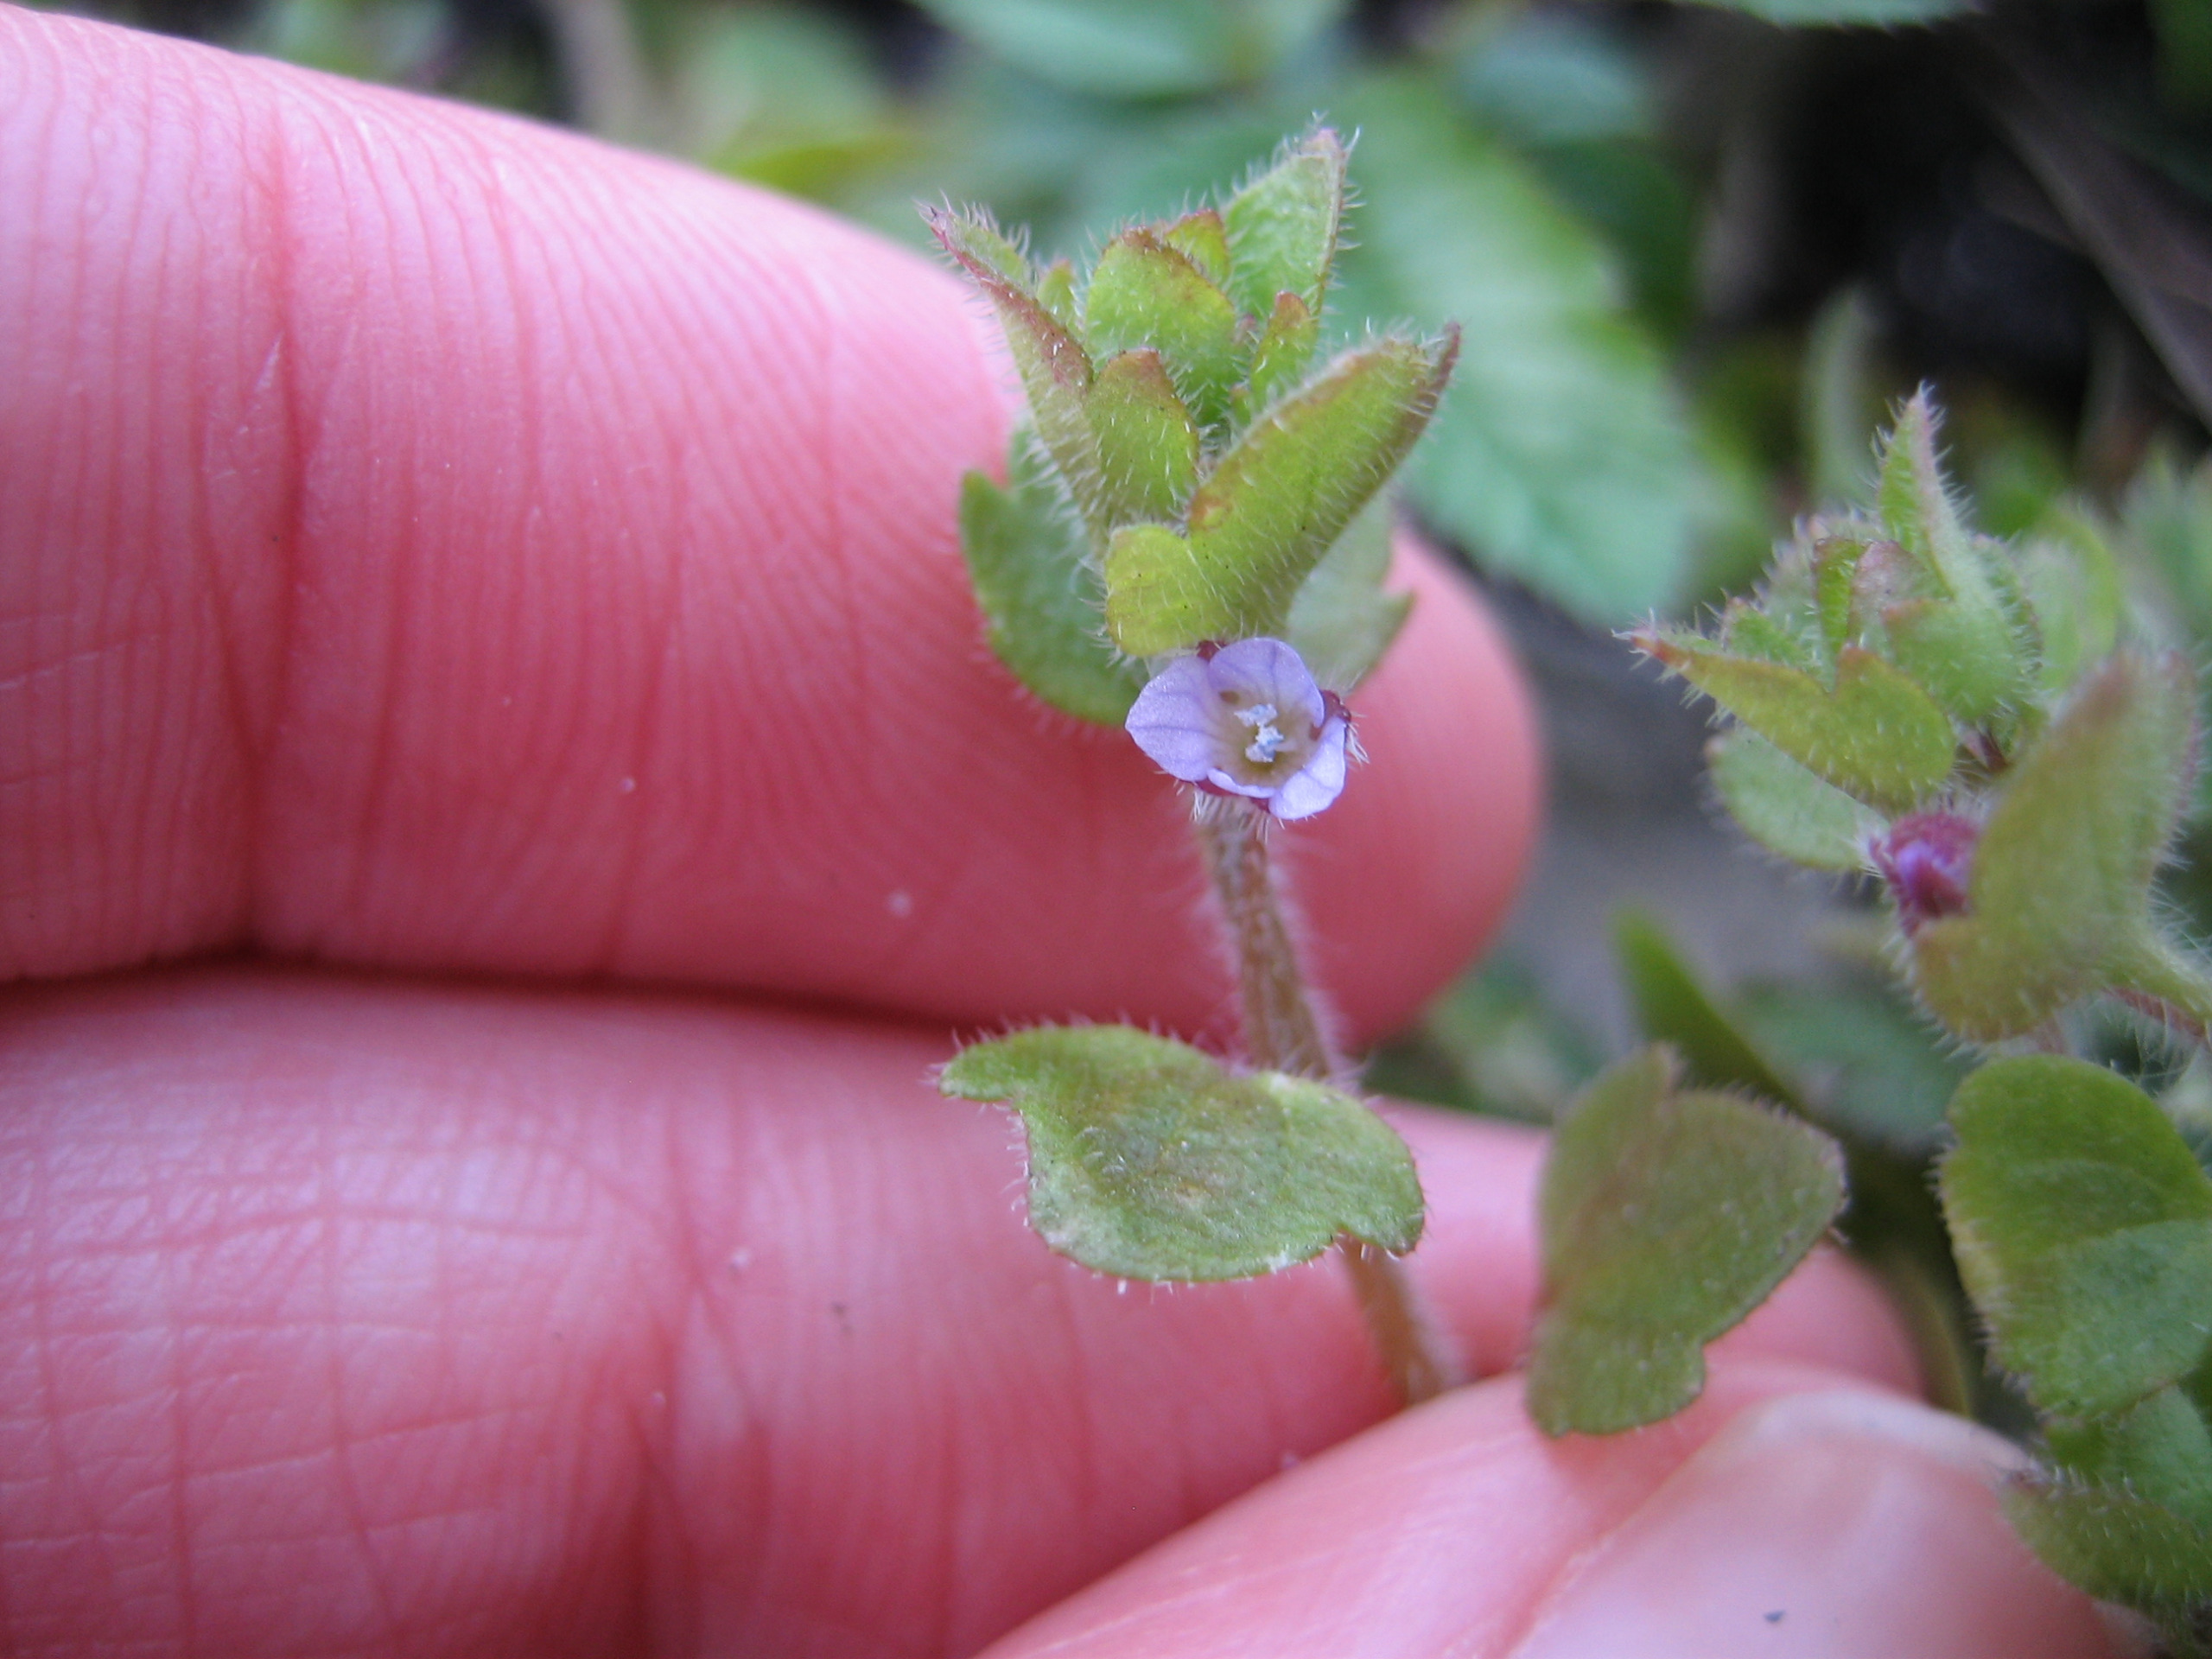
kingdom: Plantae
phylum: Tracheophyta
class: Magnoliopsida
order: Lamiales
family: Plantaginaceae
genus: Veronica
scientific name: Veronica sublobata
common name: Krat-ærenpris
